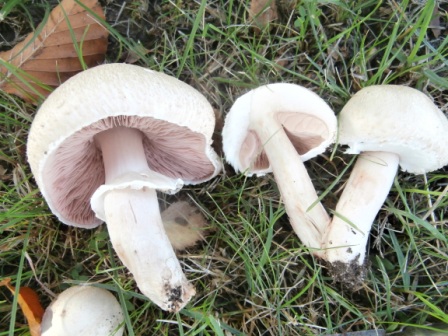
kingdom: Fungi
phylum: Basidiomycota
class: Agaricomycetes
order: Agaricales
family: Agaricaceae
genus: Agaricus
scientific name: Agaricus campestris
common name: mark-champignon
